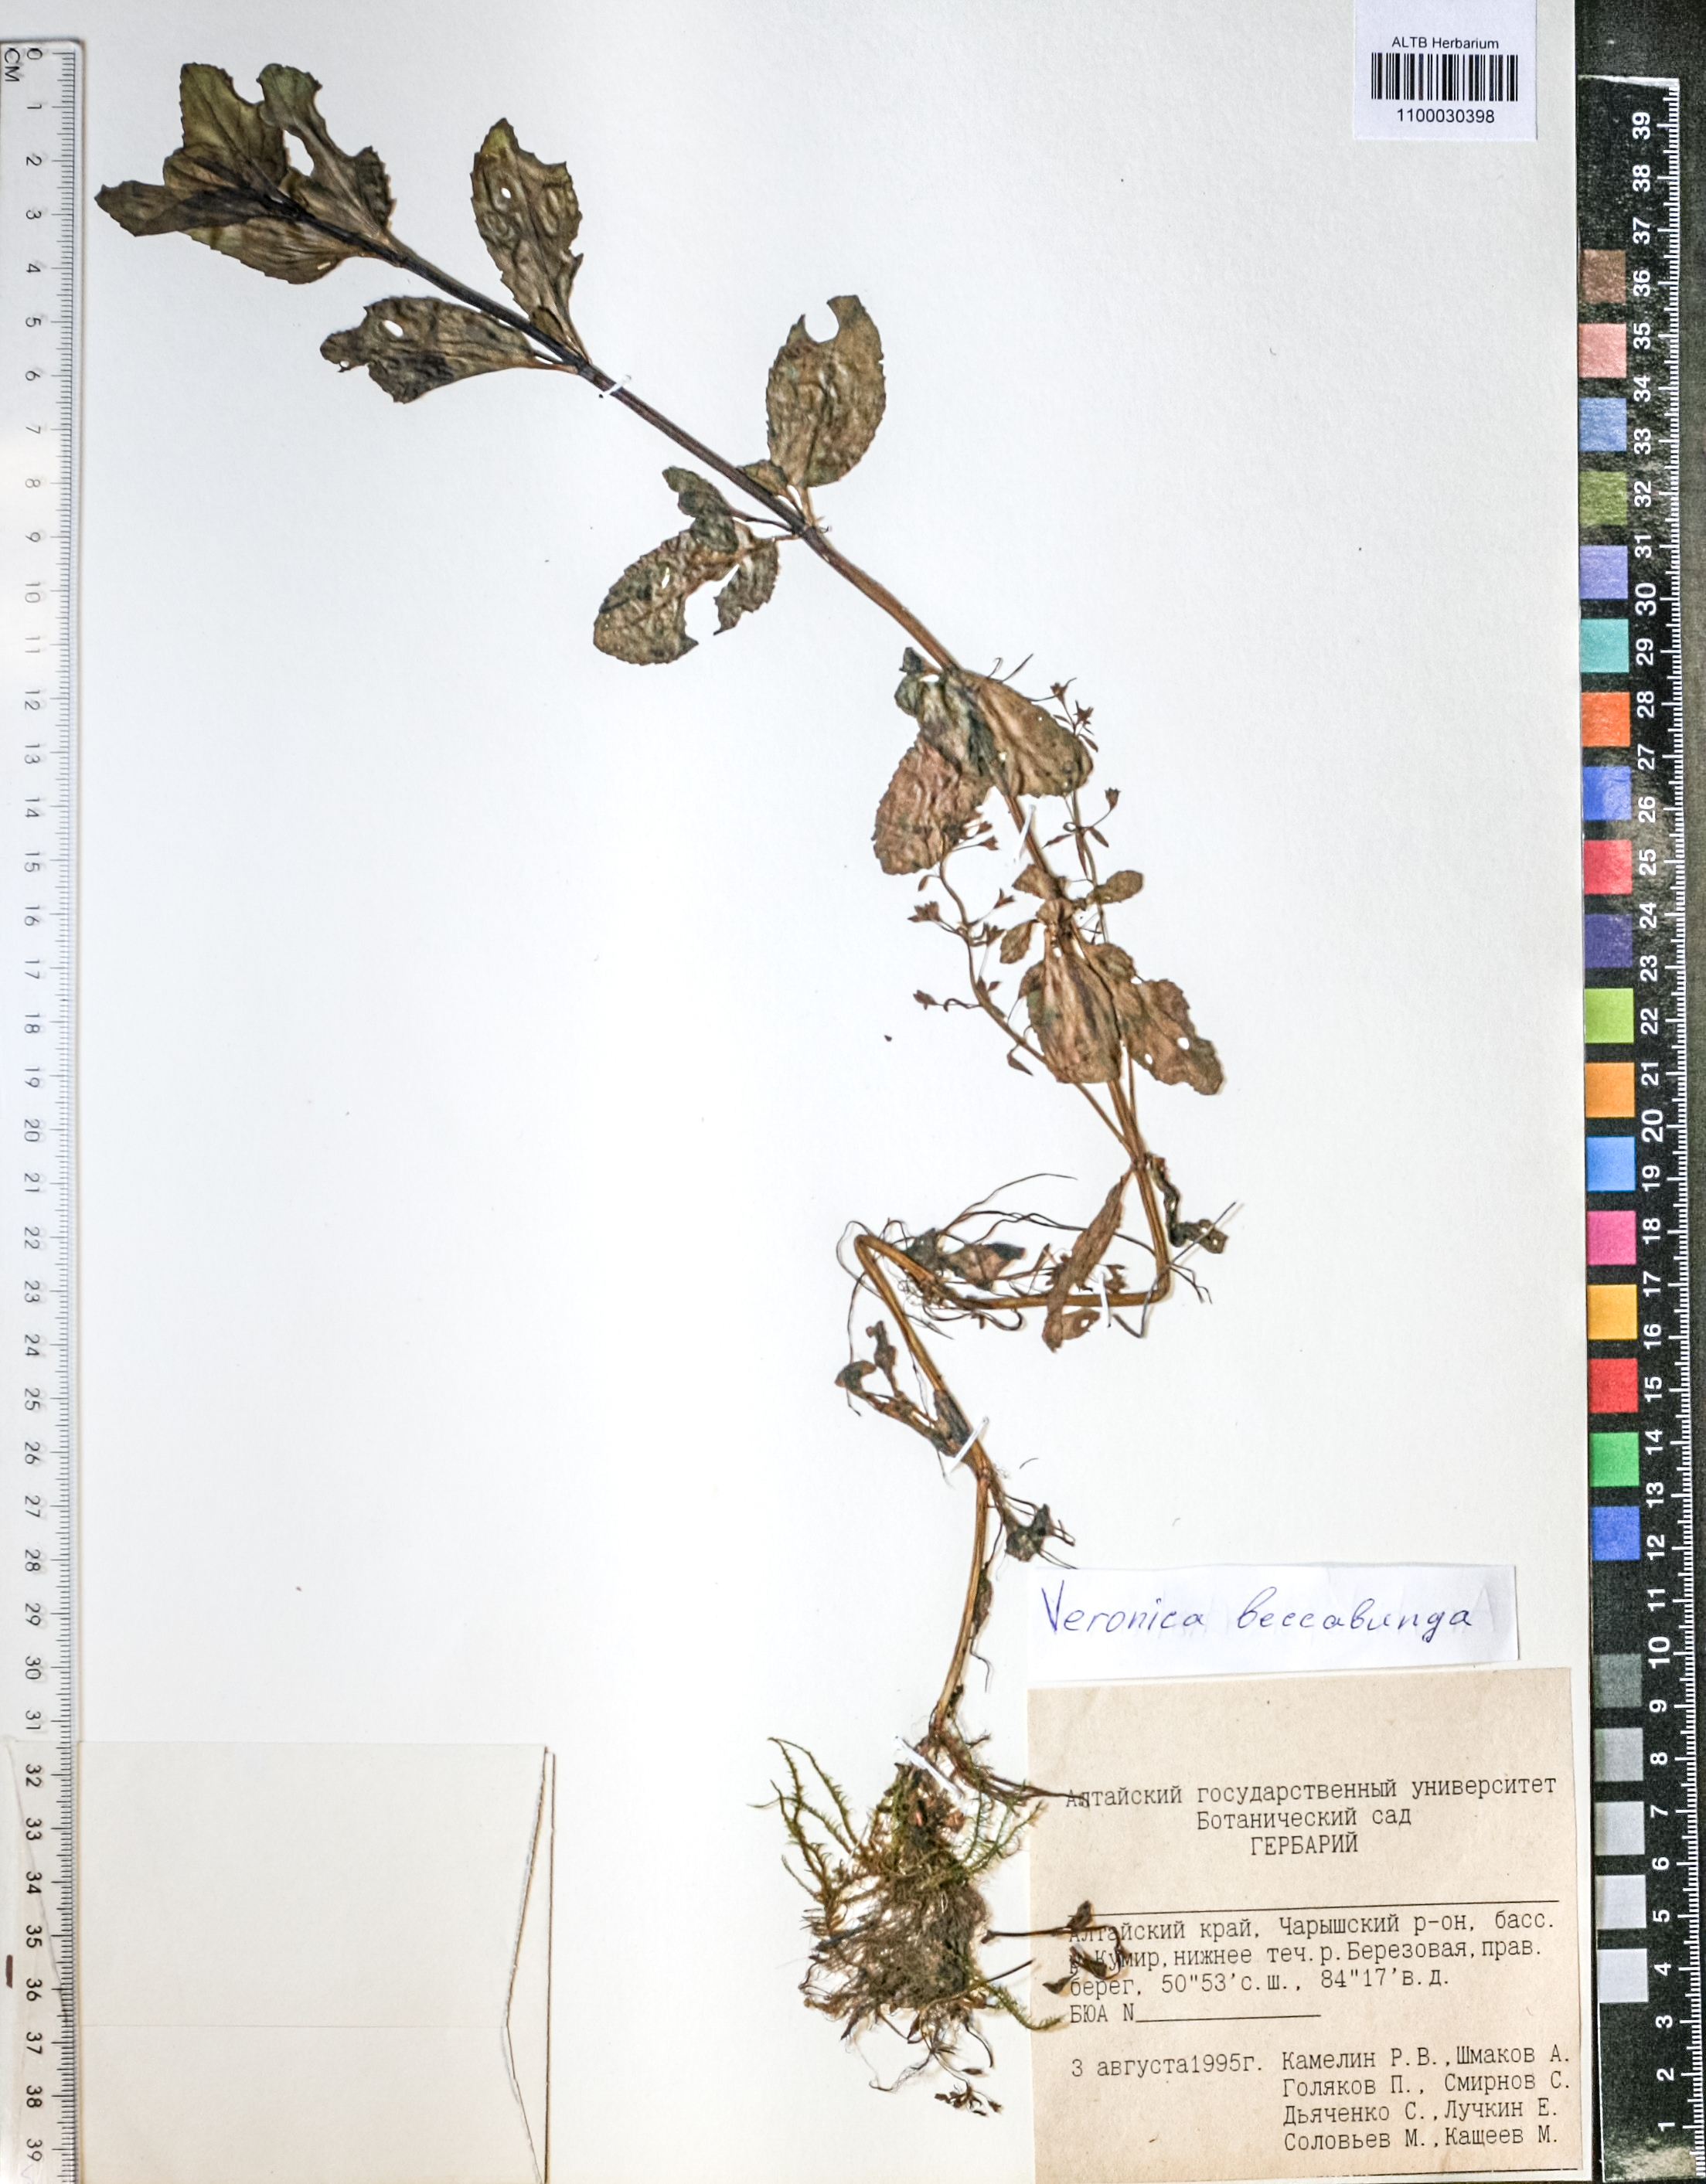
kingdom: Plantae
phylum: Tracheophyta
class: Magnoliopsida
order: Lamiales
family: Plantaginaceae
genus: Veronica
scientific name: Veronica beccabunga
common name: Brooklime
